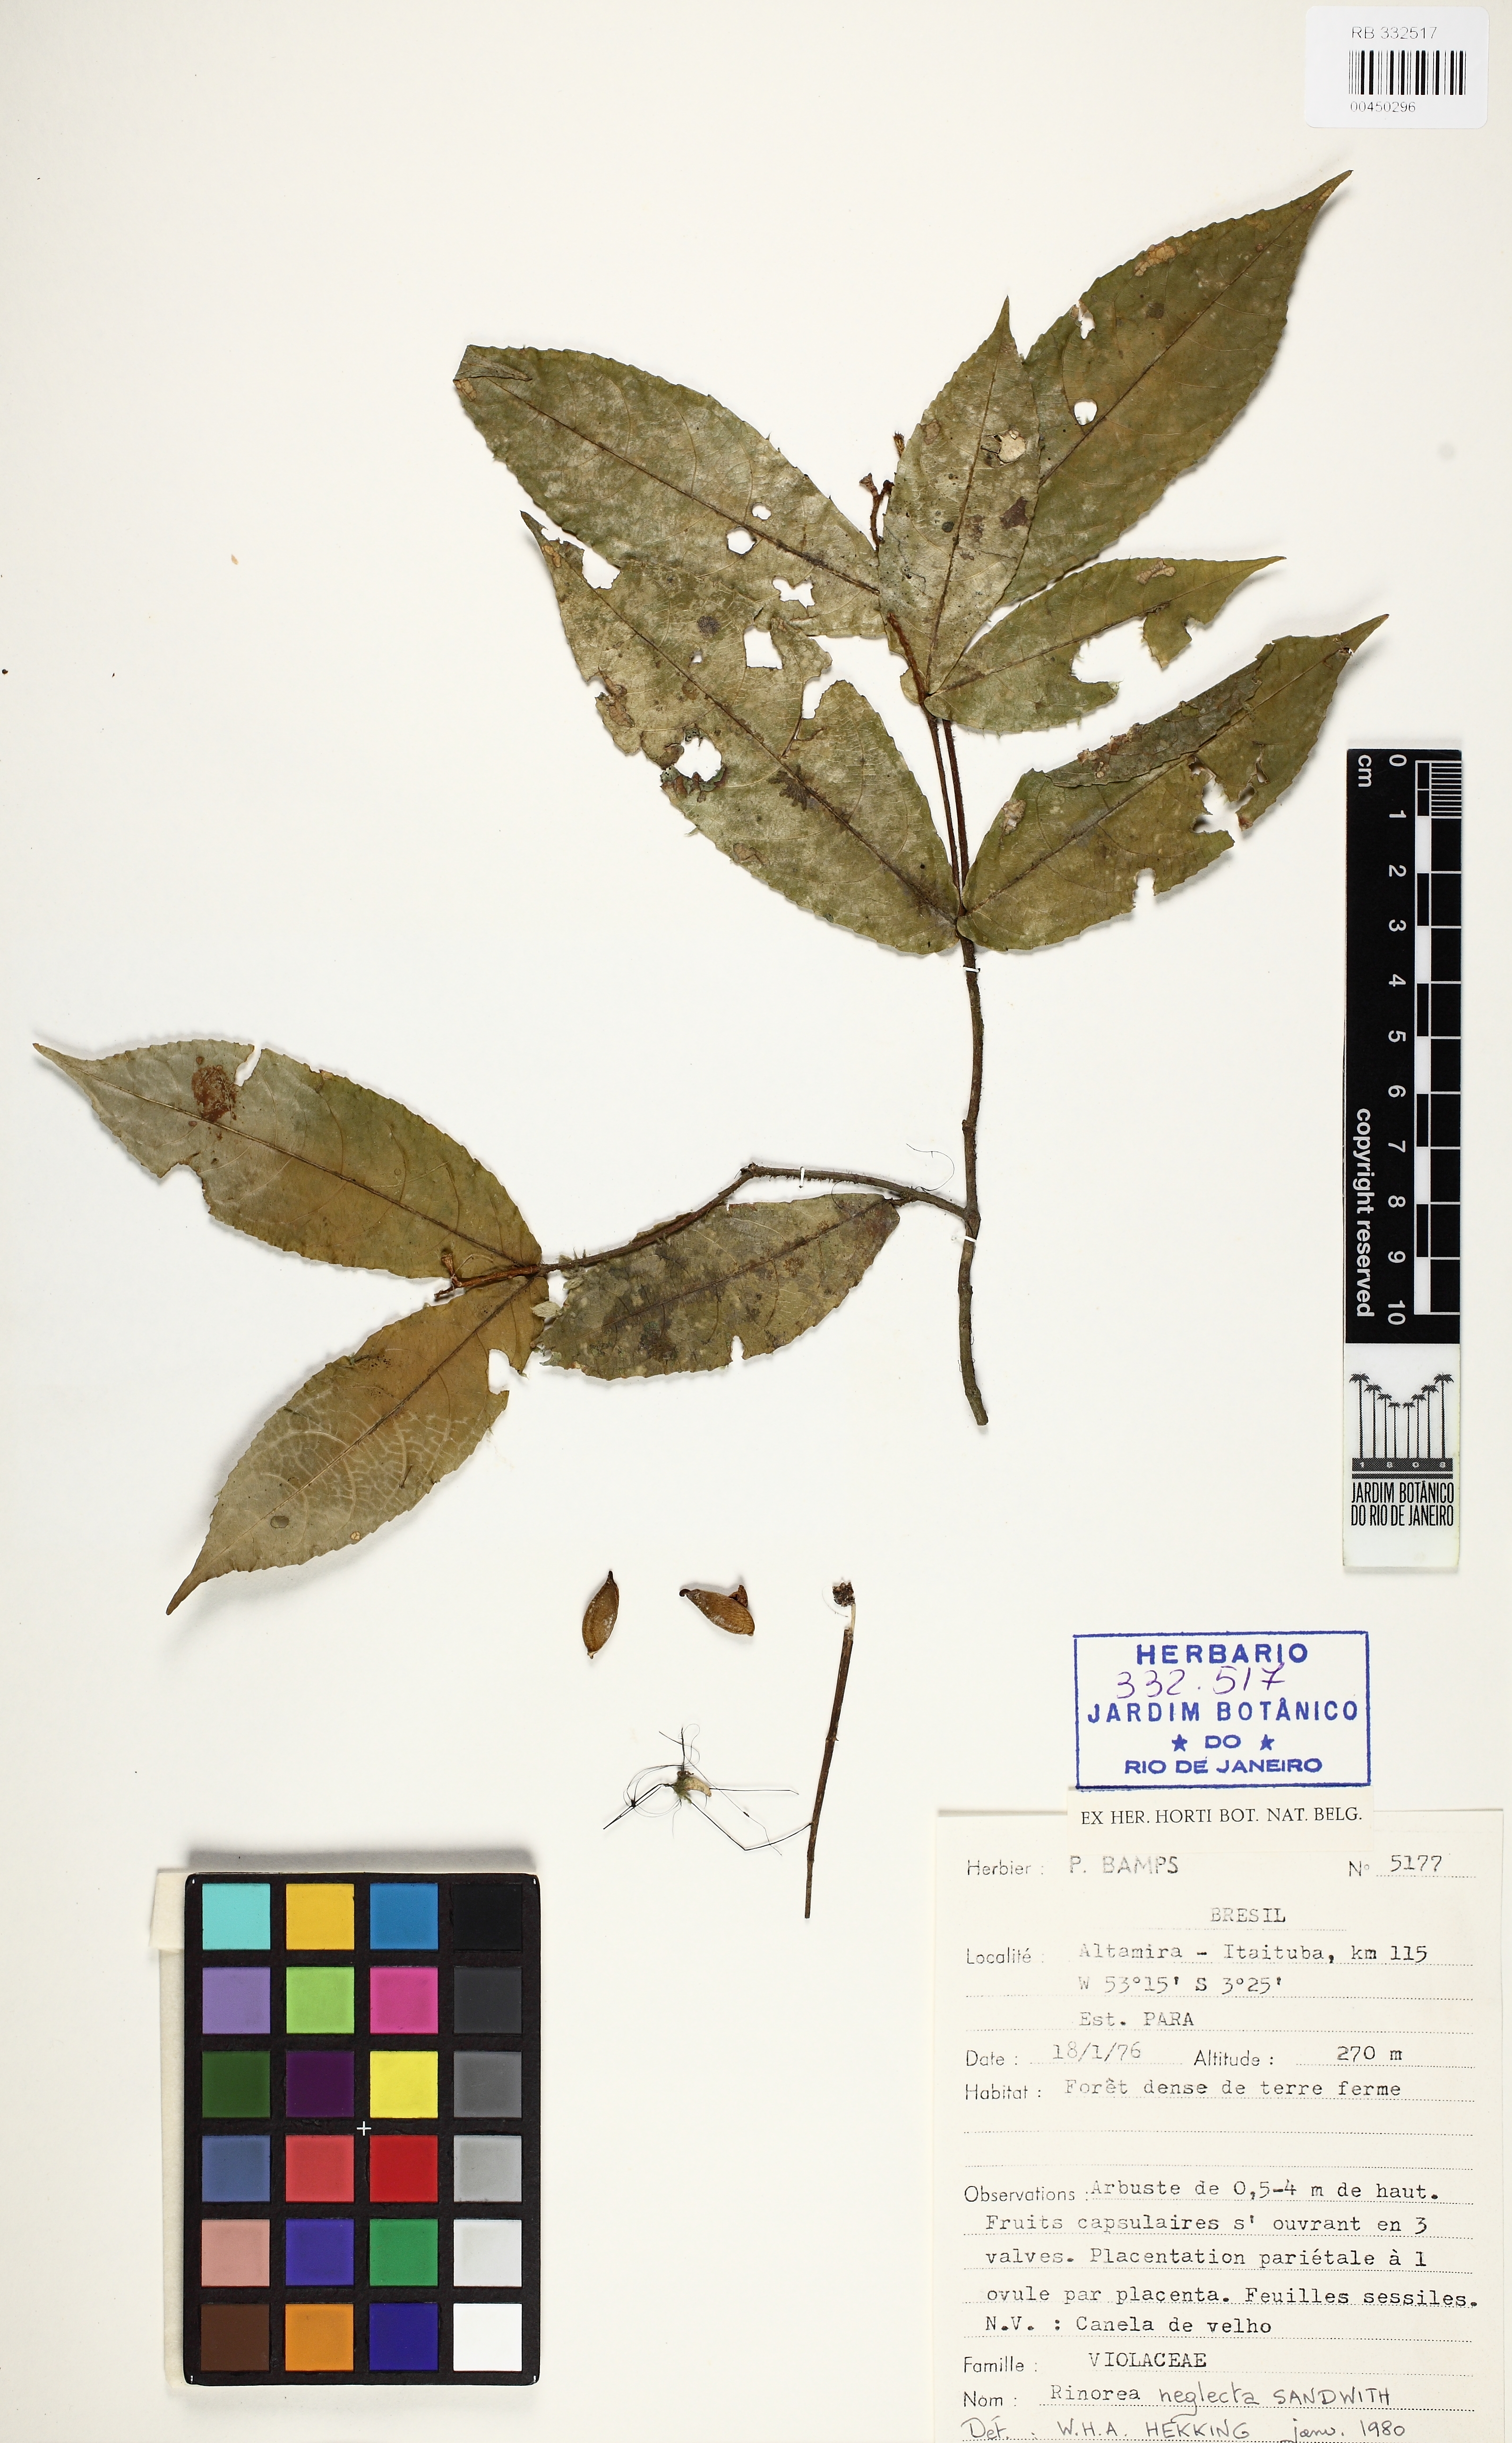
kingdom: Plantae
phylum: Tracheophyta
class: Magnoliopsida
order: Malpighiales
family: Violaceae
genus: Rinorea
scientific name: Rinorea neglecta
